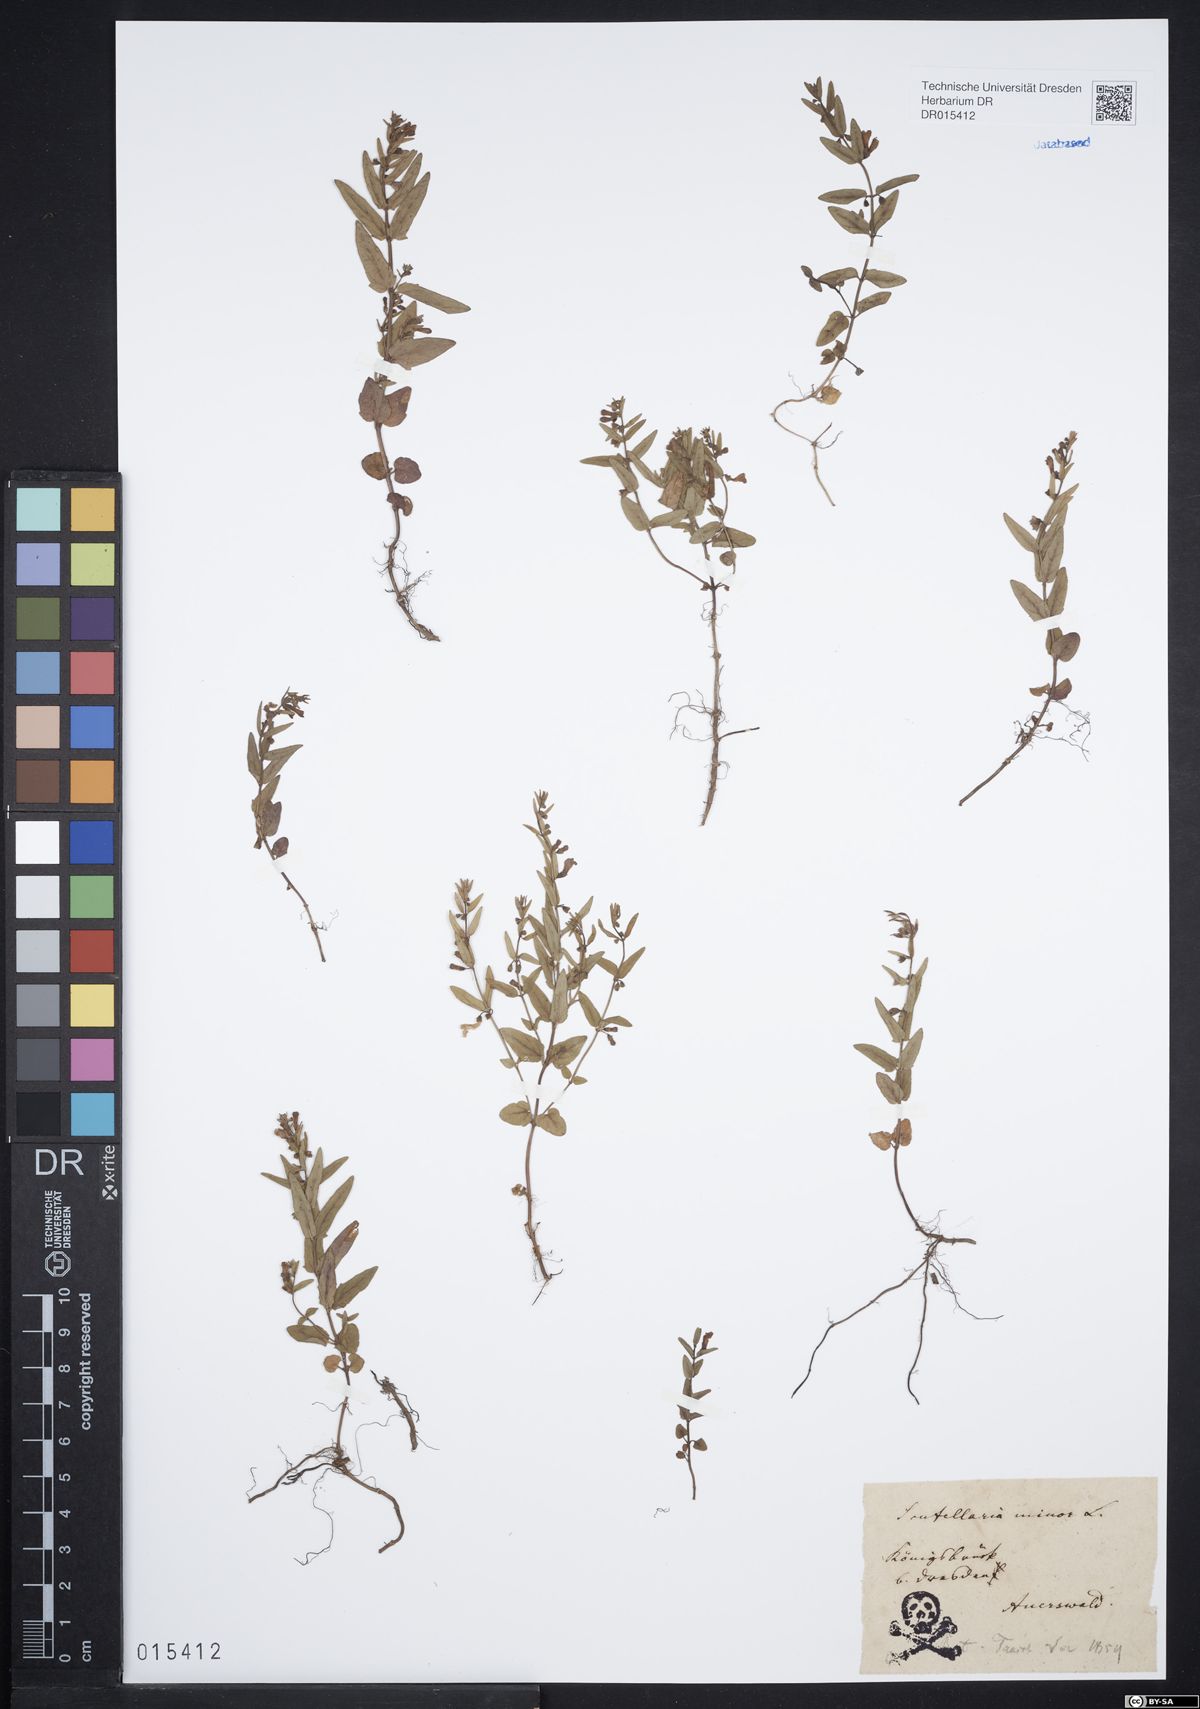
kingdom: Plantae
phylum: Tracheophyta
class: Magnoliopsida
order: Lamiales
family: Lamiaceae
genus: Scutellaria
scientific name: Scutellaria minor
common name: Lesser skullcap
